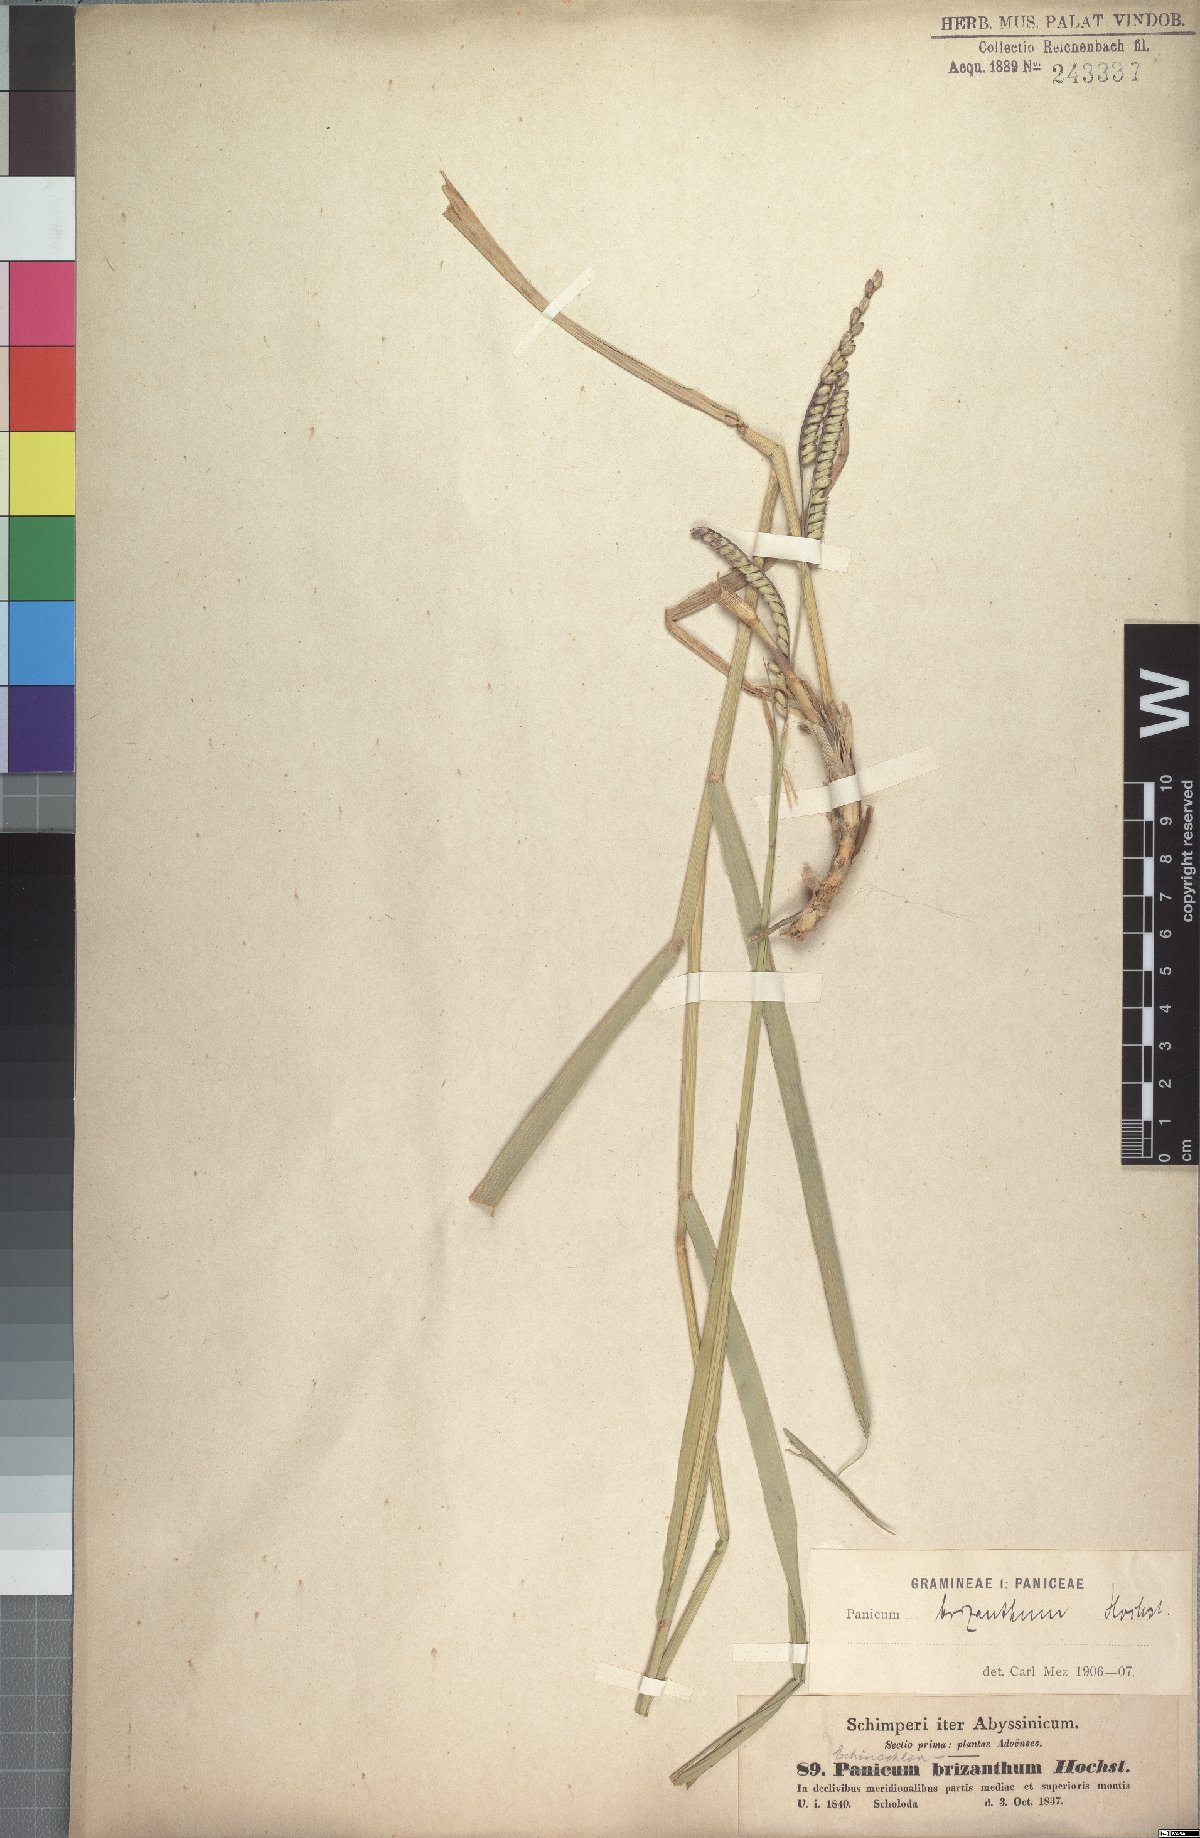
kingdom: Plantae
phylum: Tracheophyta
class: Liliopsida
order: Poales
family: Poaceae
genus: Urochloa
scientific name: Urochloa brizantha
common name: Palisade signalgrass
